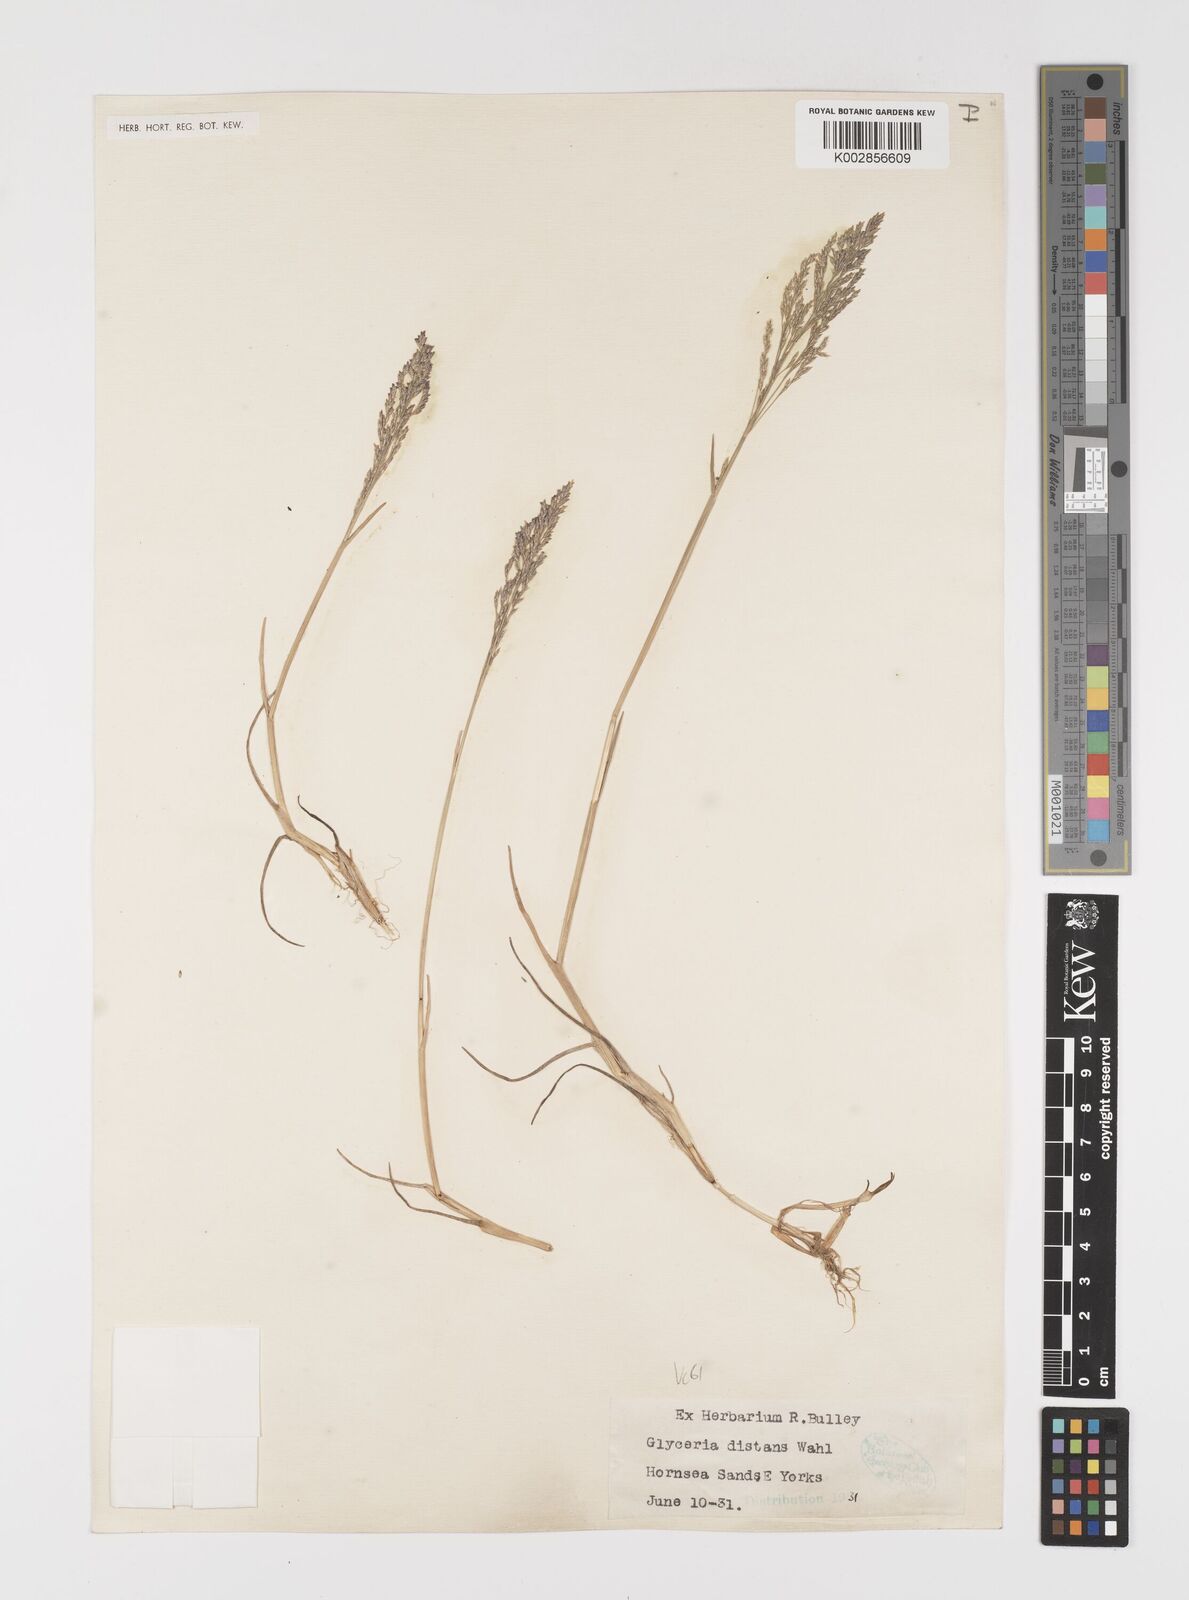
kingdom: Plantae
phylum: Tracheophyta
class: Liliopsida
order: Poales
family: Poaceae
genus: Puccinellia
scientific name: Puccinellia distans
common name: Weeping alkaligrass
